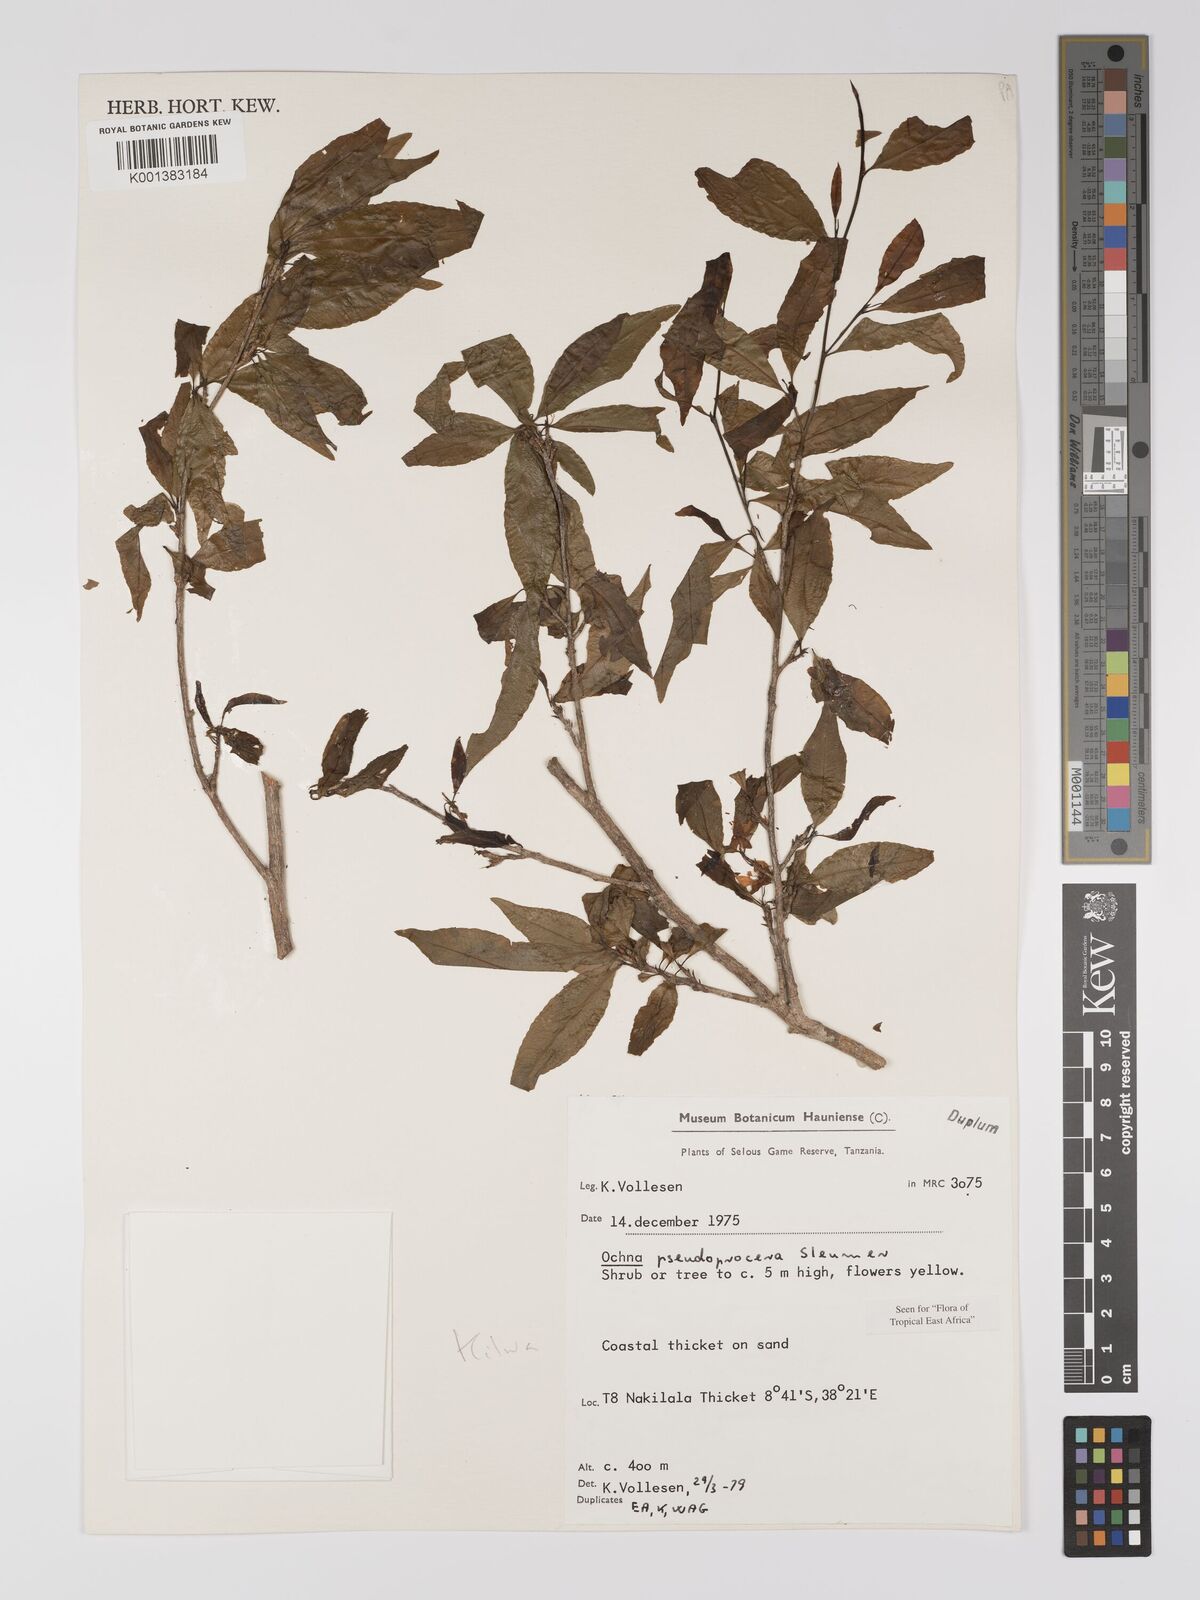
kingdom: Plantae
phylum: Tracheophyta
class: Magnoliopsida
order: Malpighiales
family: Ochnaceae
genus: Ochna
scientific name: Ochna pseudoprocera
